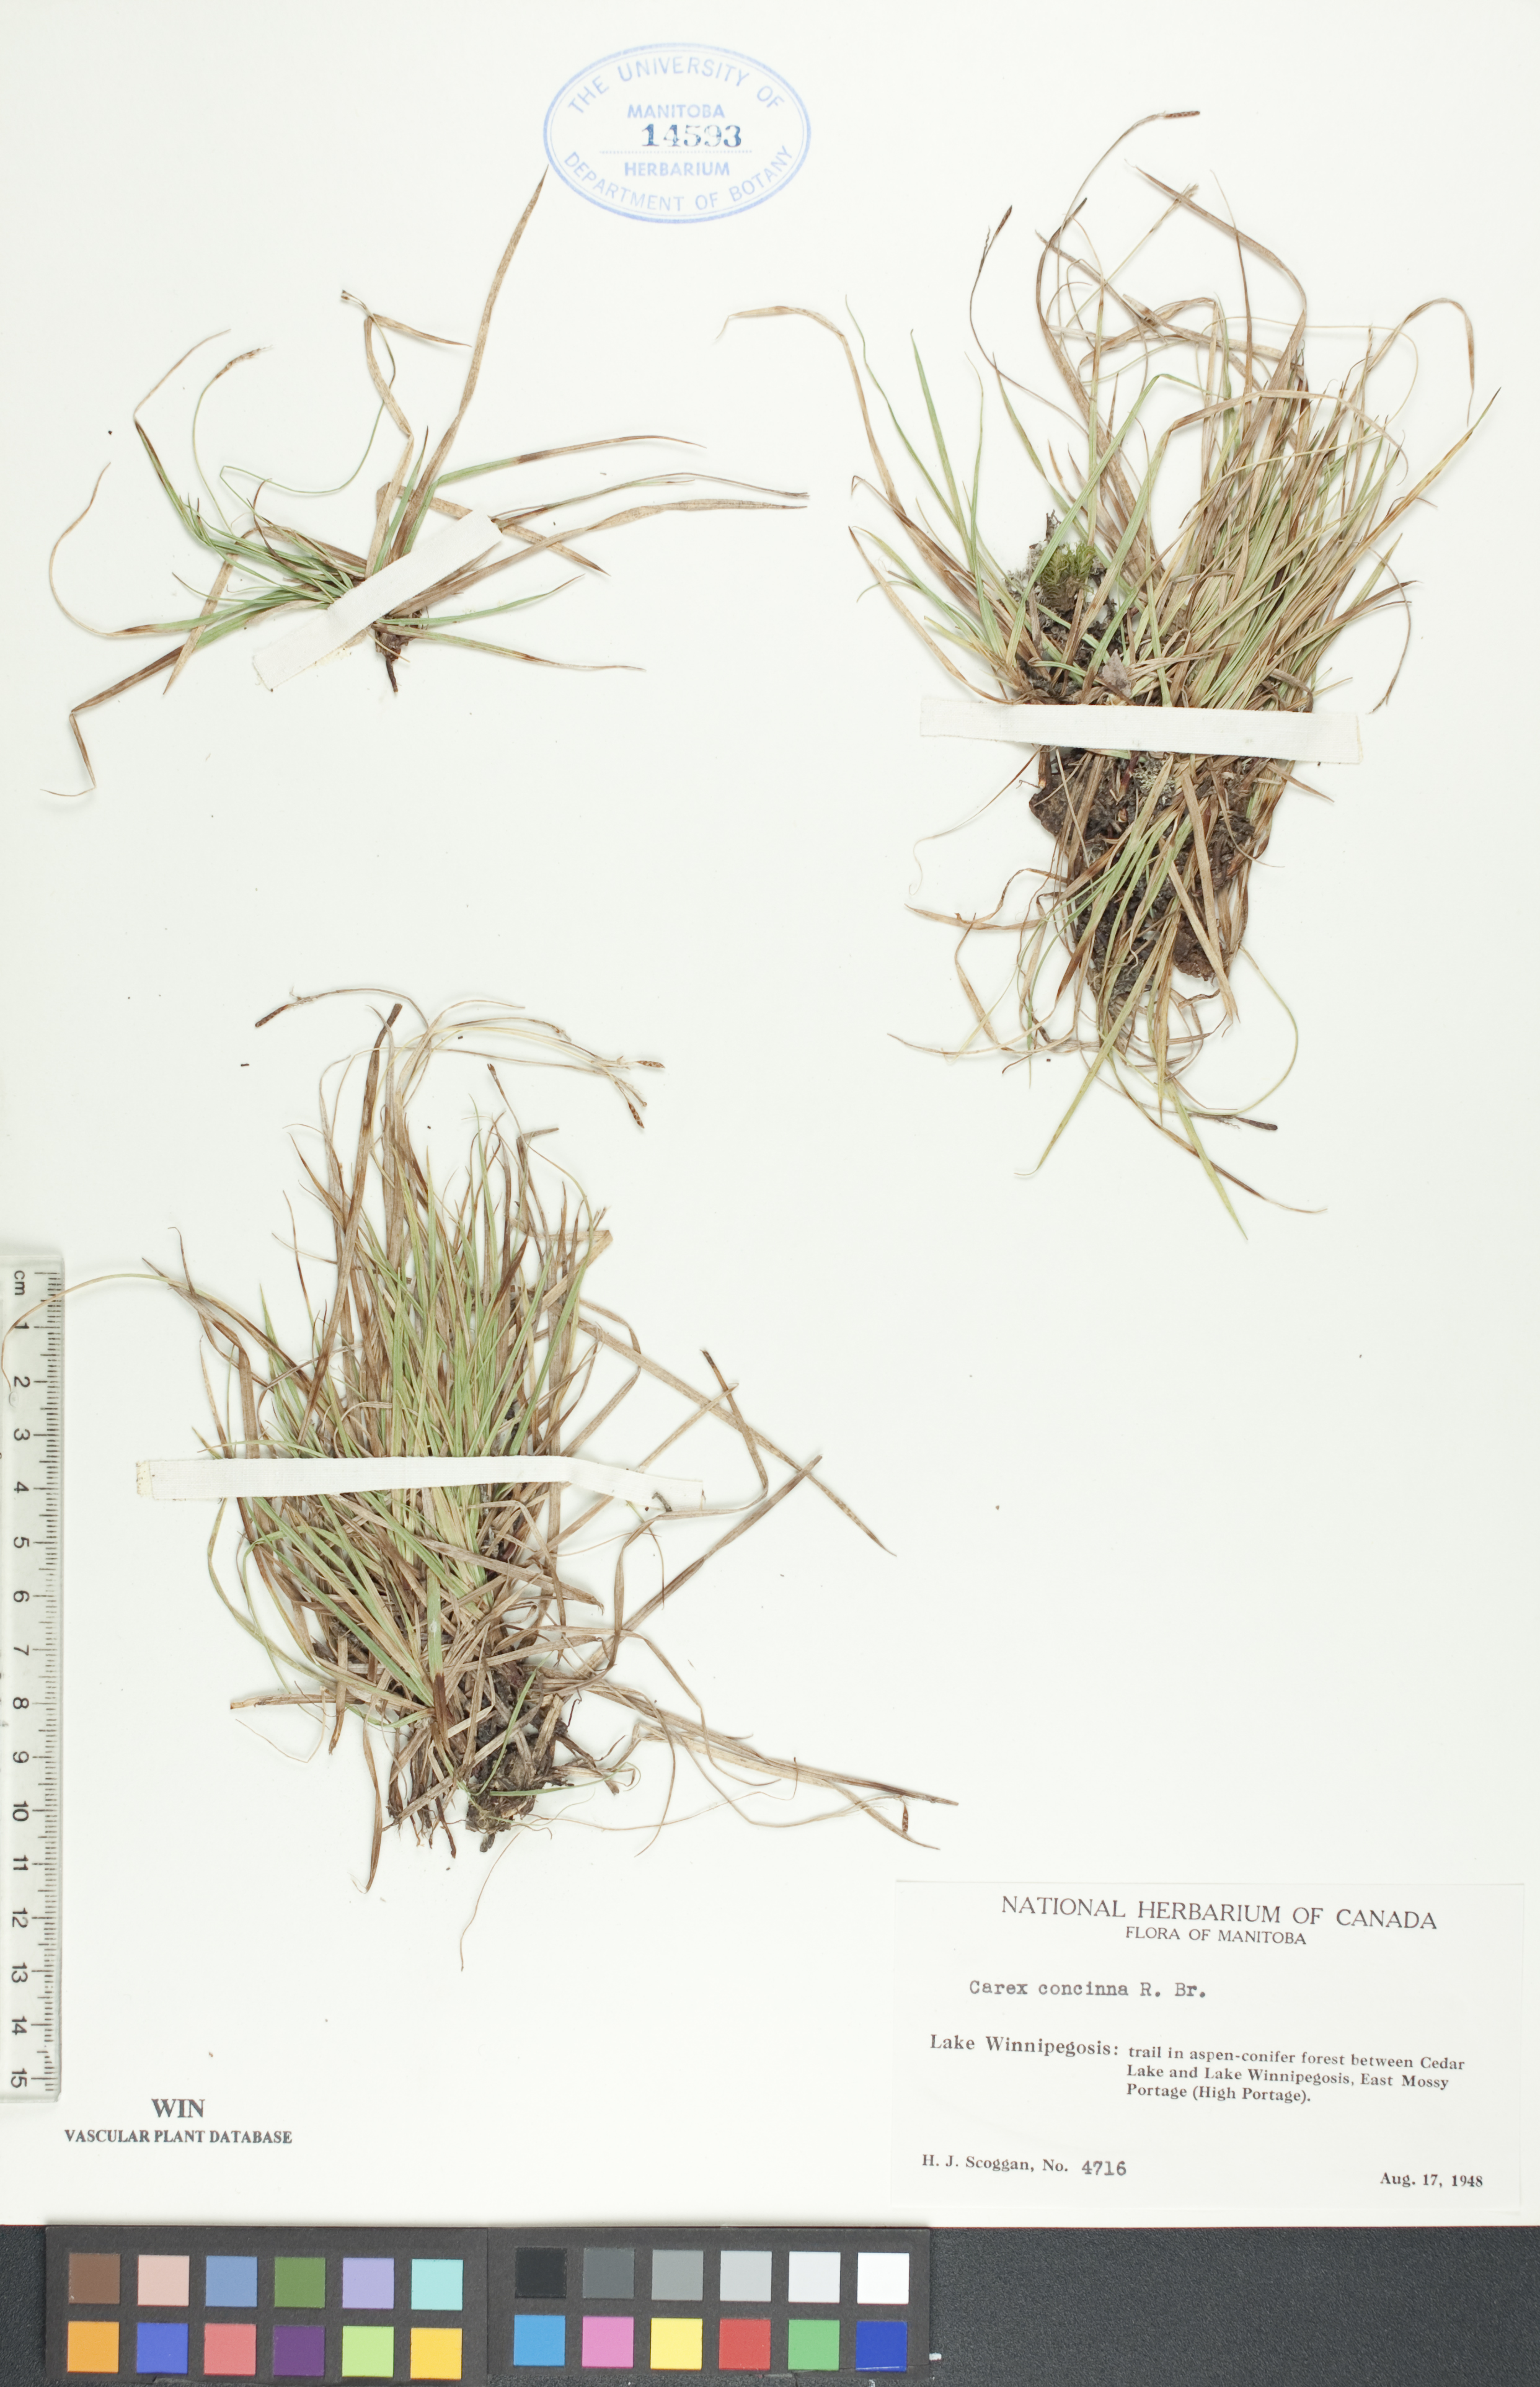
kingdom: Plantae
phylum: Tracheophyta
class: Liliopsida
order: Poales
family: Cyperaceae
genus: Carex
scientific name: Carex concinna
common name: Beautiful sedge
